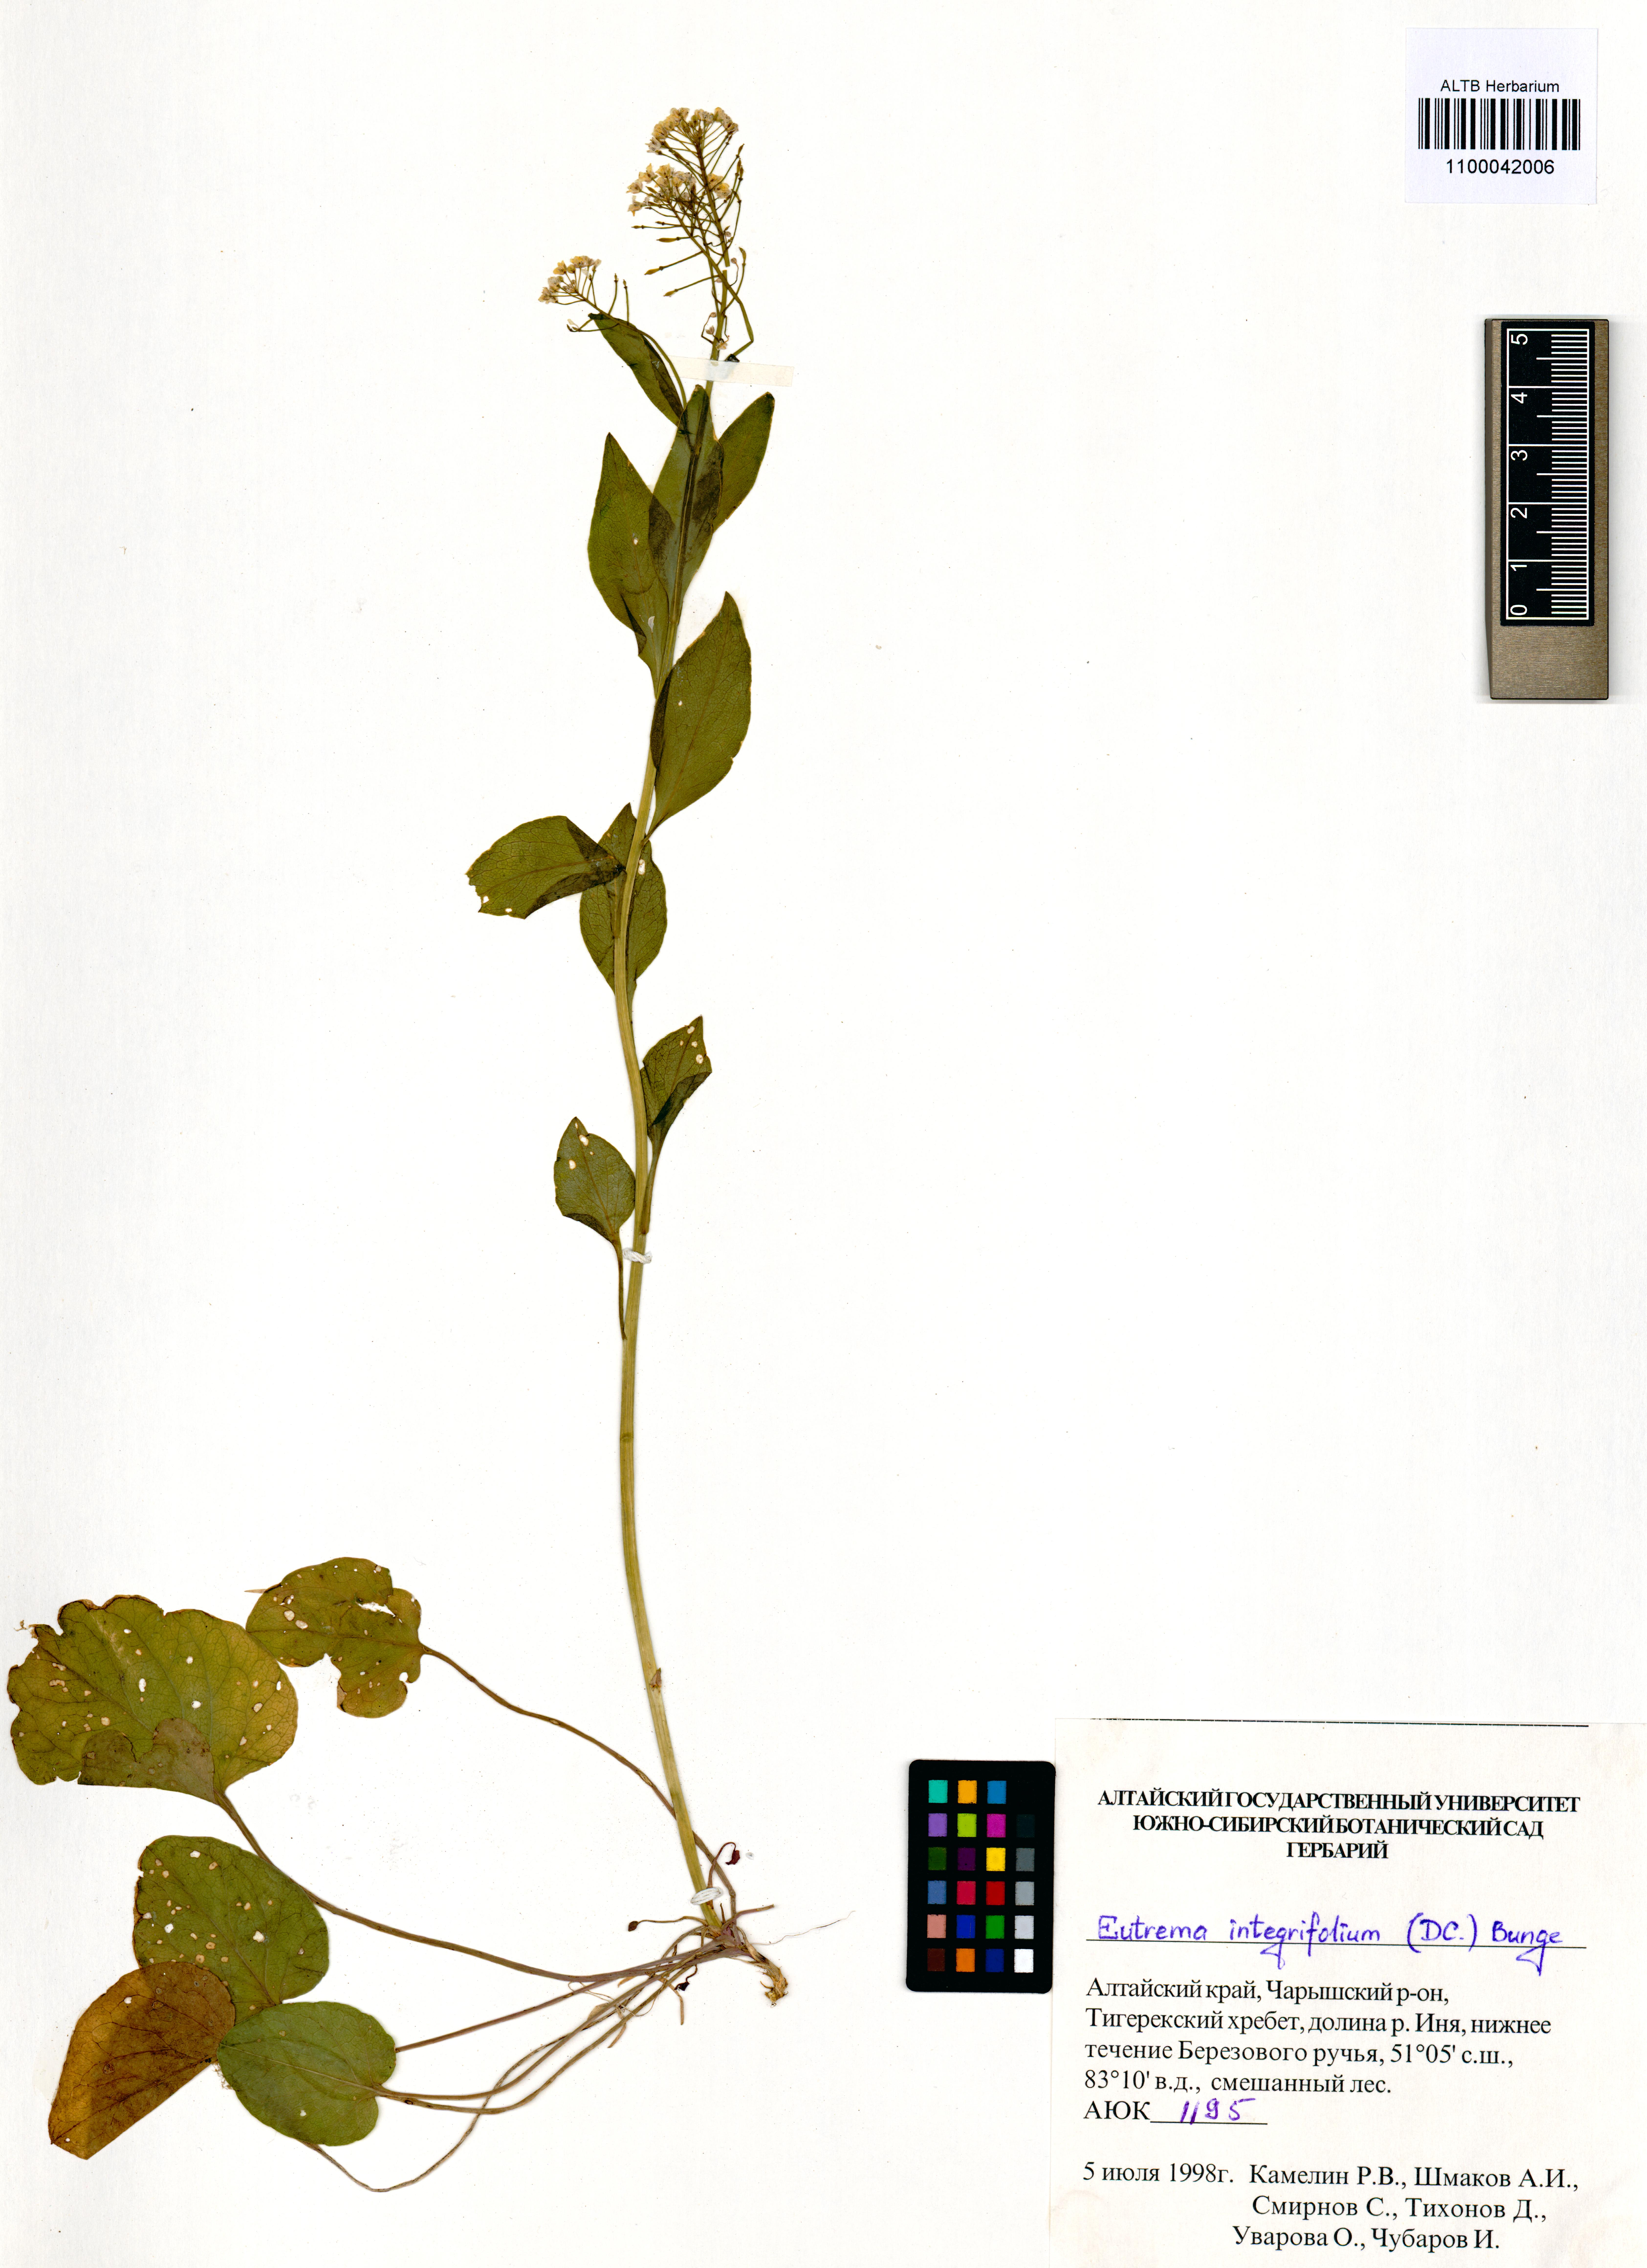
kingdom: Plantae
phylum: Tracheophyta
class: Magnoliopsida
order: Brassicales
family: Brassicaceae
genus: Eutrema
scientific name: Eutrema integrifolium
